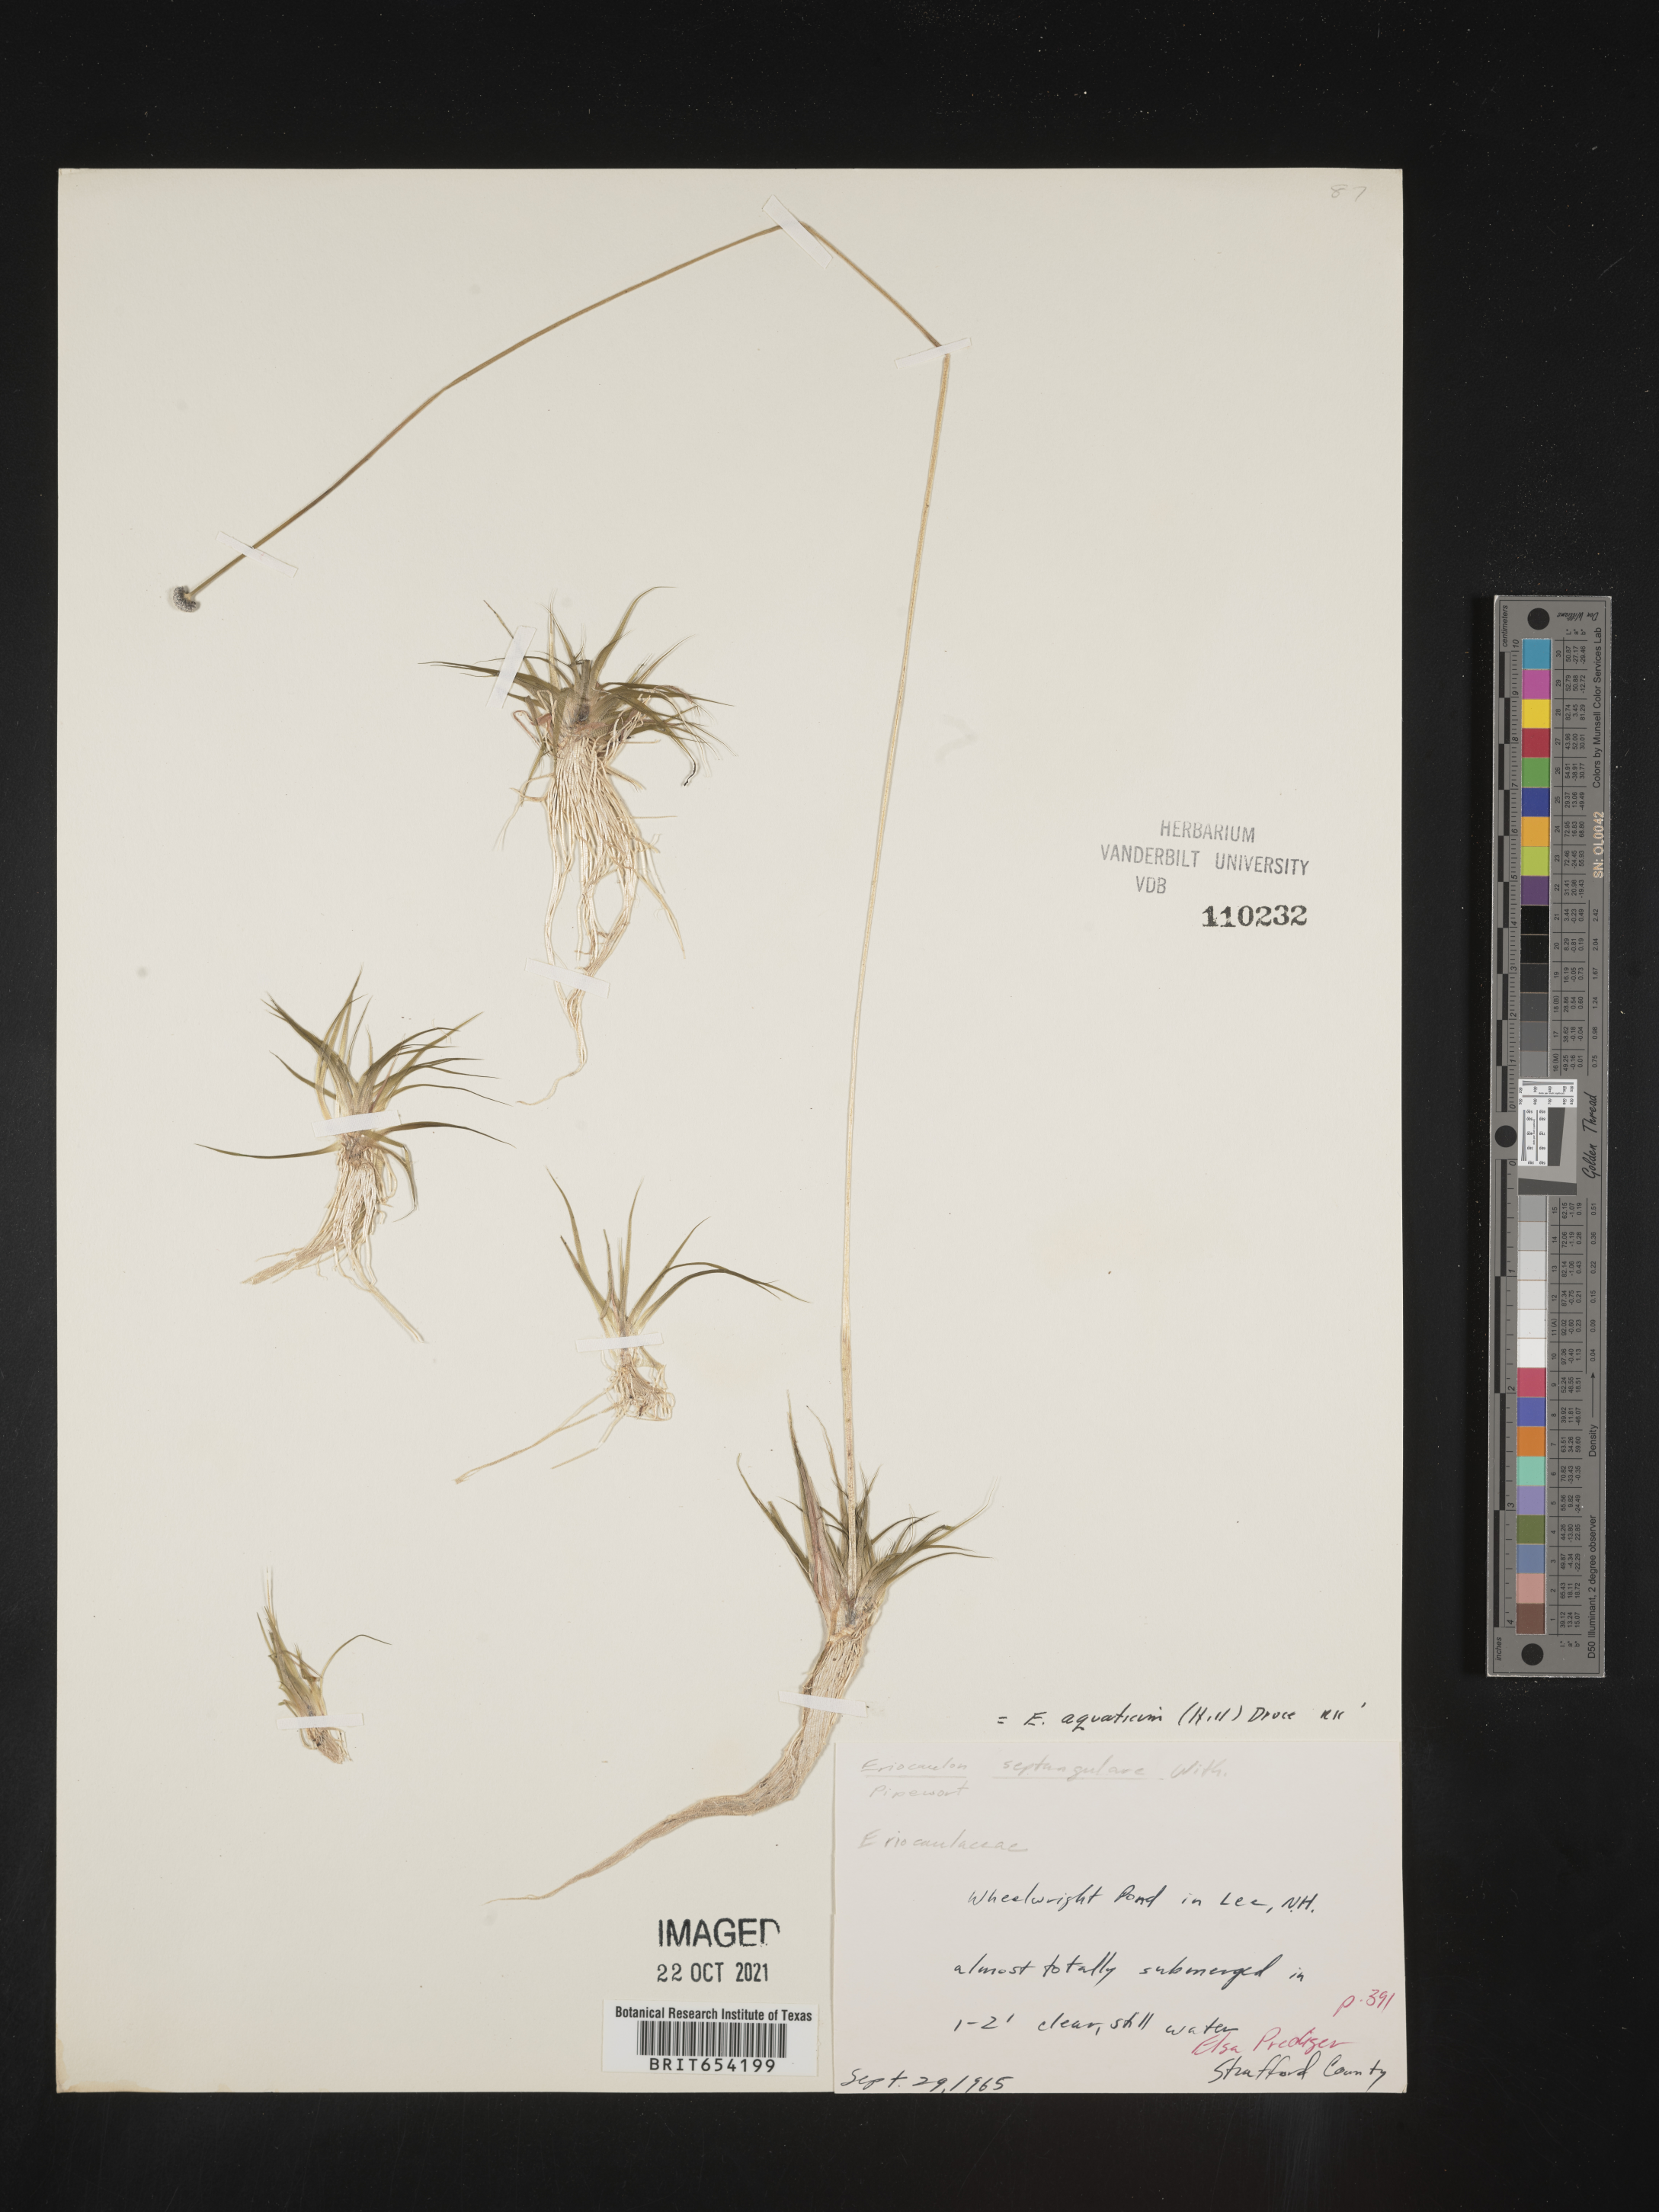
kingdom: Plantae
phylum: Tracheophyta
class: Liliopsida
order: Poales
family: Eriocaulaceae
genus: Eriocaulon
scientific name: Eriocaulon aquaticum
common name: Pipewort
